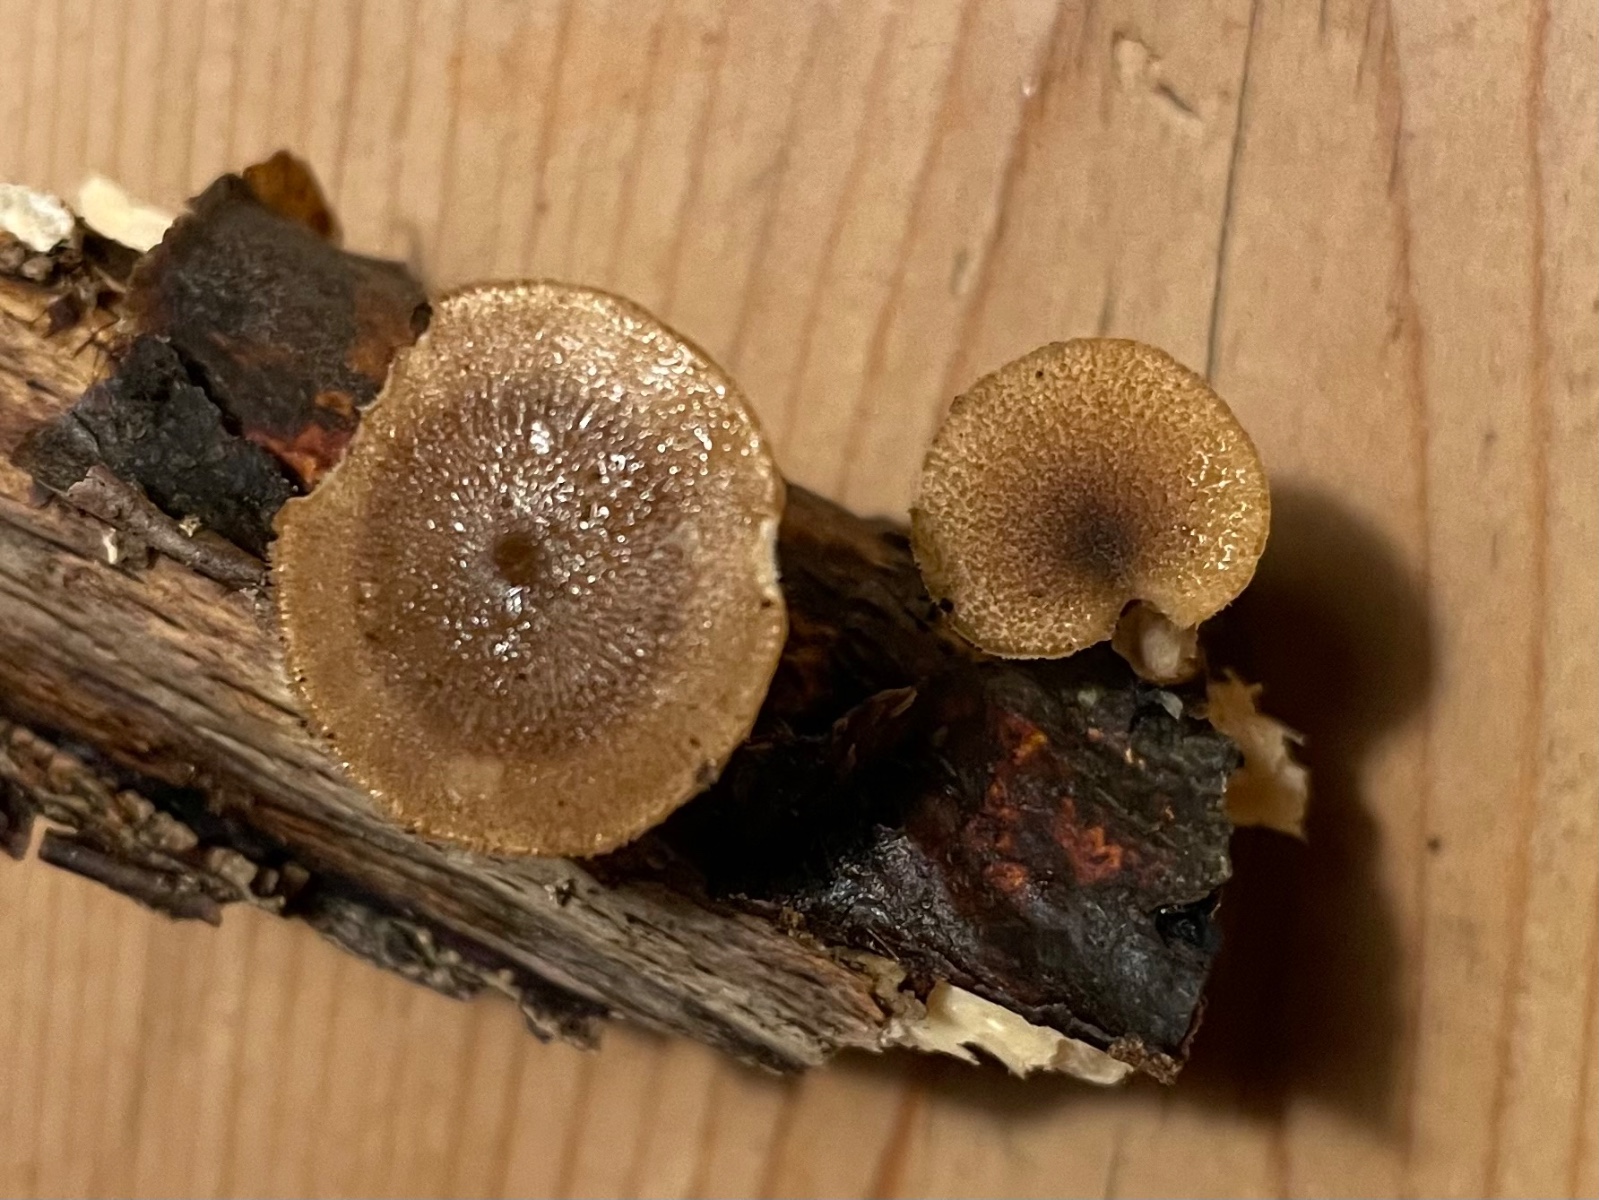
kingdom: Fungi
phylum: Basidiomycota
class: Agaricomycetes
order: Polyporales
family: Polyporaceae
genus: Lentinus
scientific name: Lentinus brumalis
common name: vinter-stilkporesvamp
